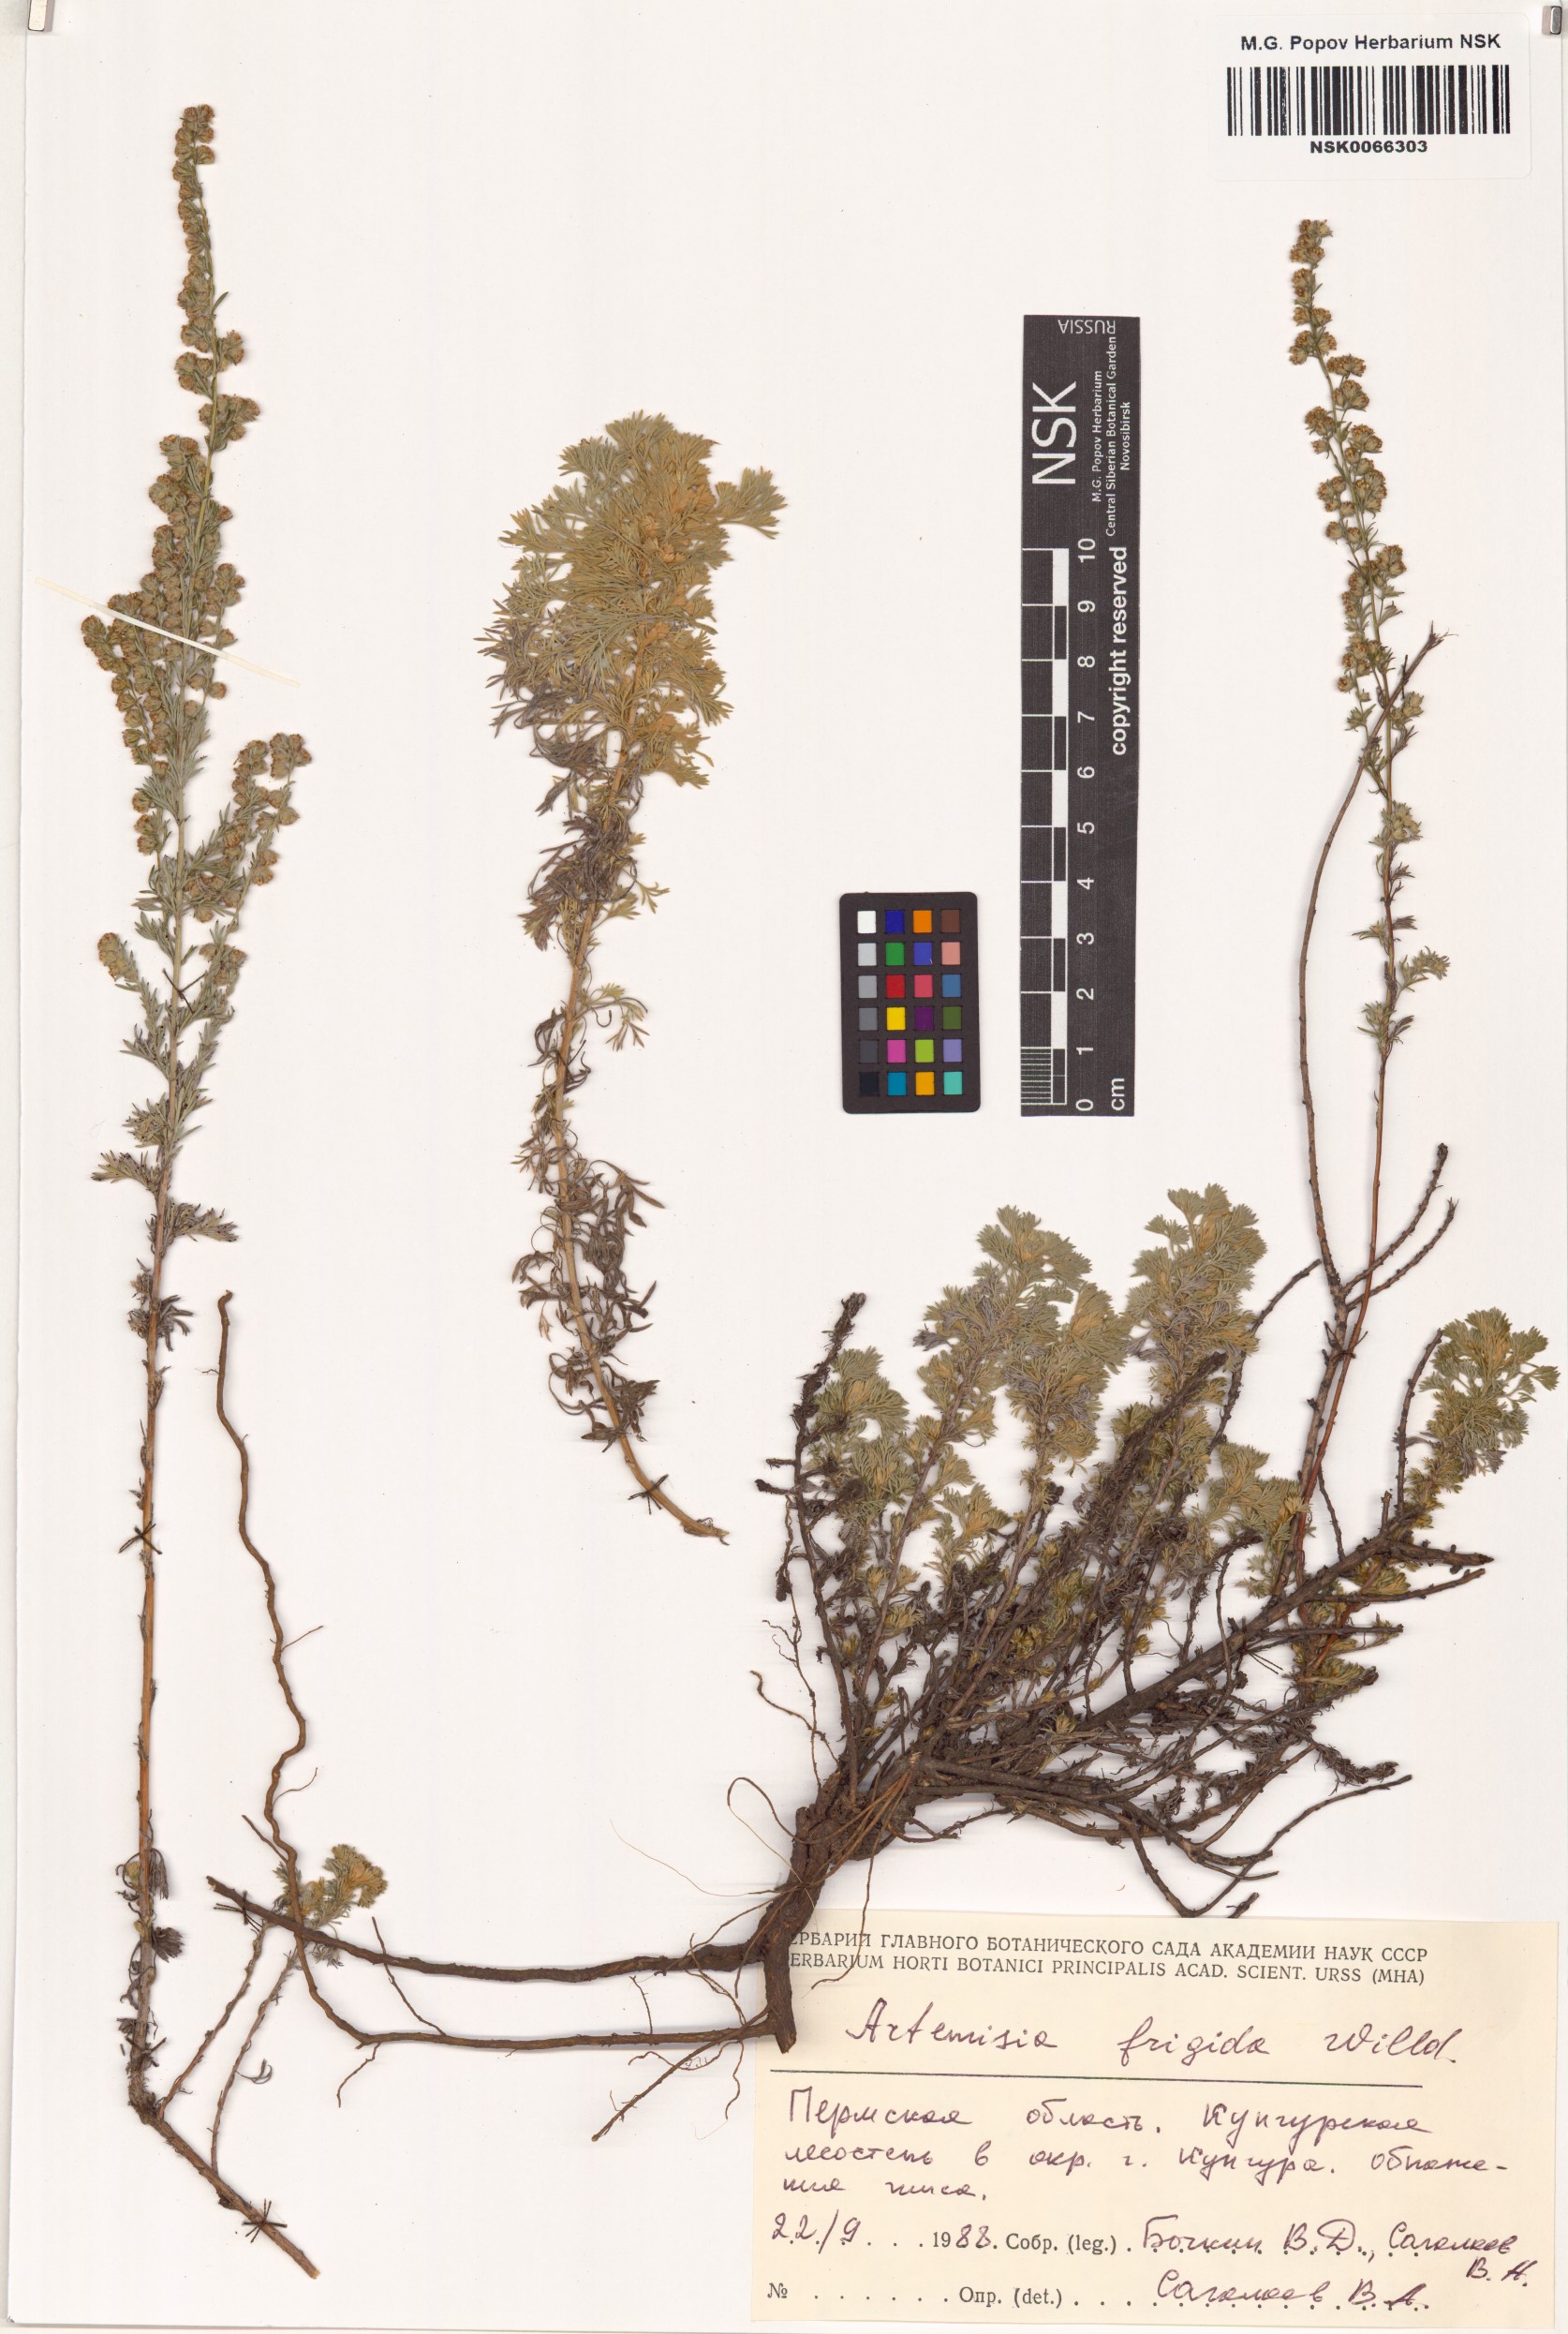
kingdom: Plantae
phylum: Tracheophyta
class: Magnoliopsida
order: Asterales
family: Asteraceae
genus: Artemisia
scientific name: Artemisia frigida
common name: Prairie sagewort
